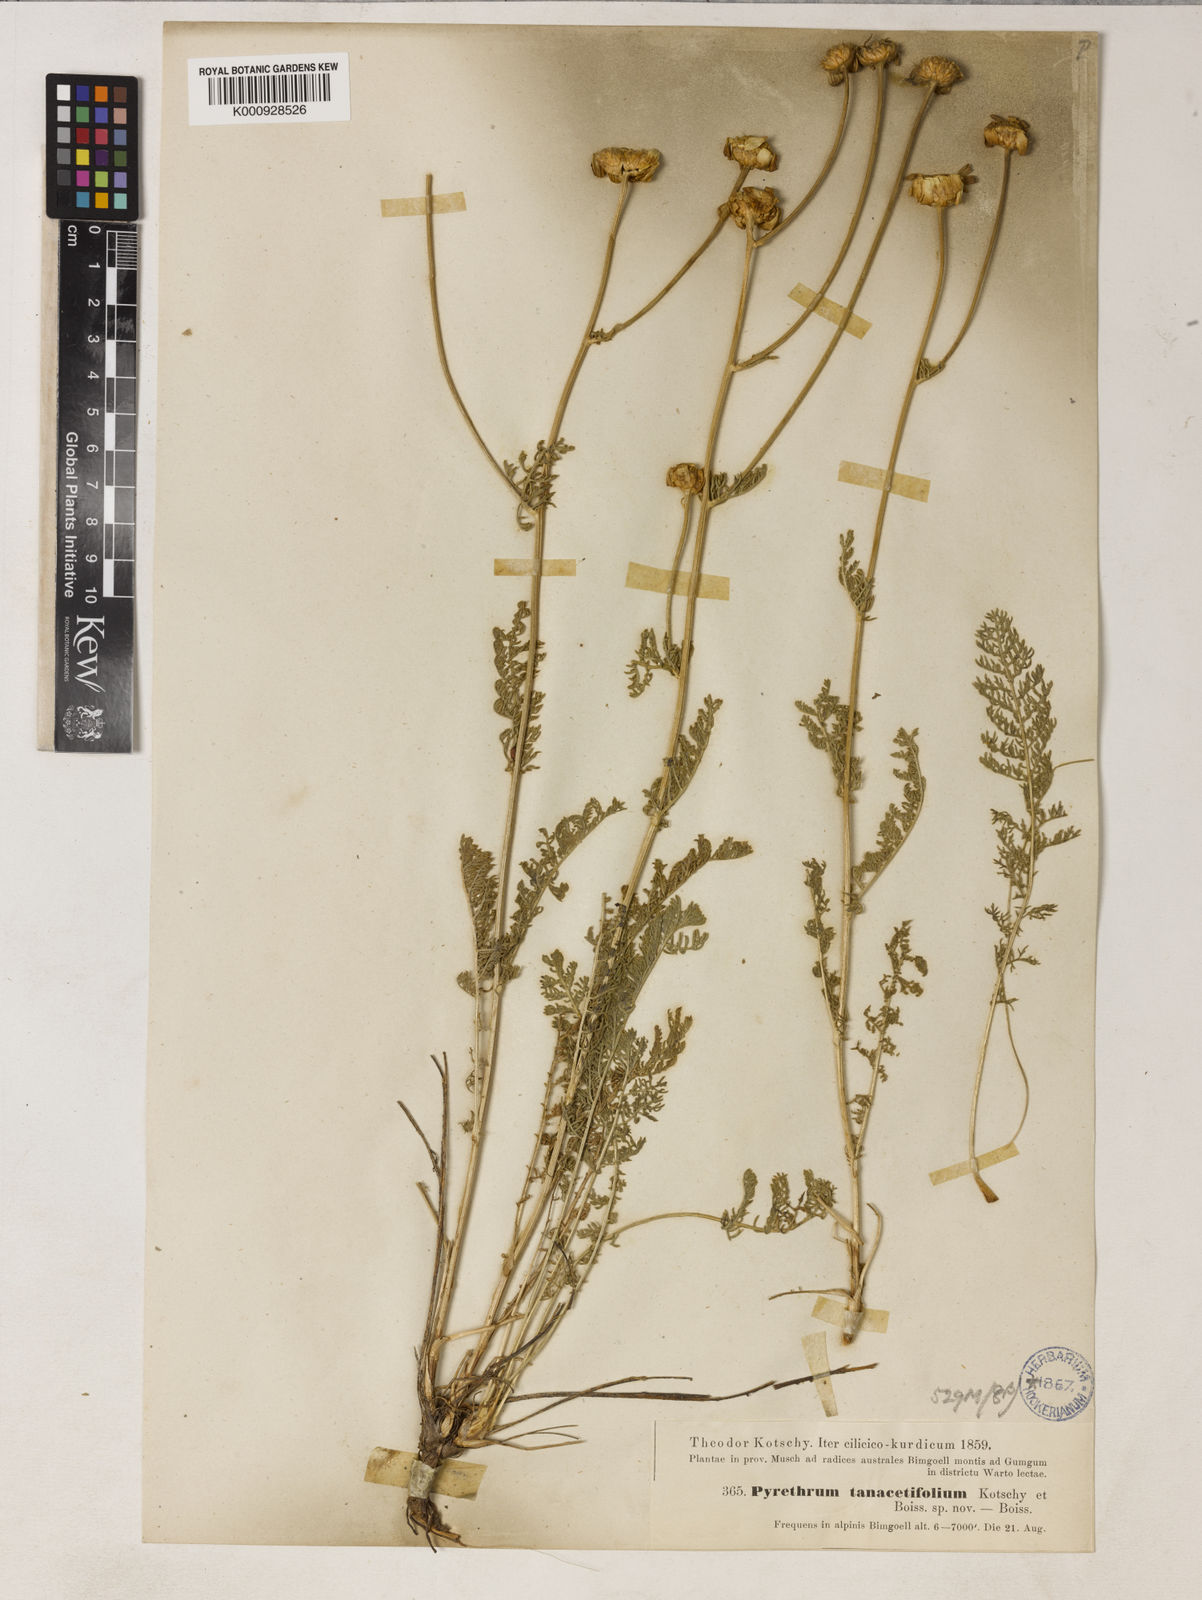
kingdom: Plantae
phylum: Tracheophyta
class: Magnoliopsida
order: Asterales
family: Asteraceae
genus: Tanacetum
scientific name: Tanacetum mucroniferum
